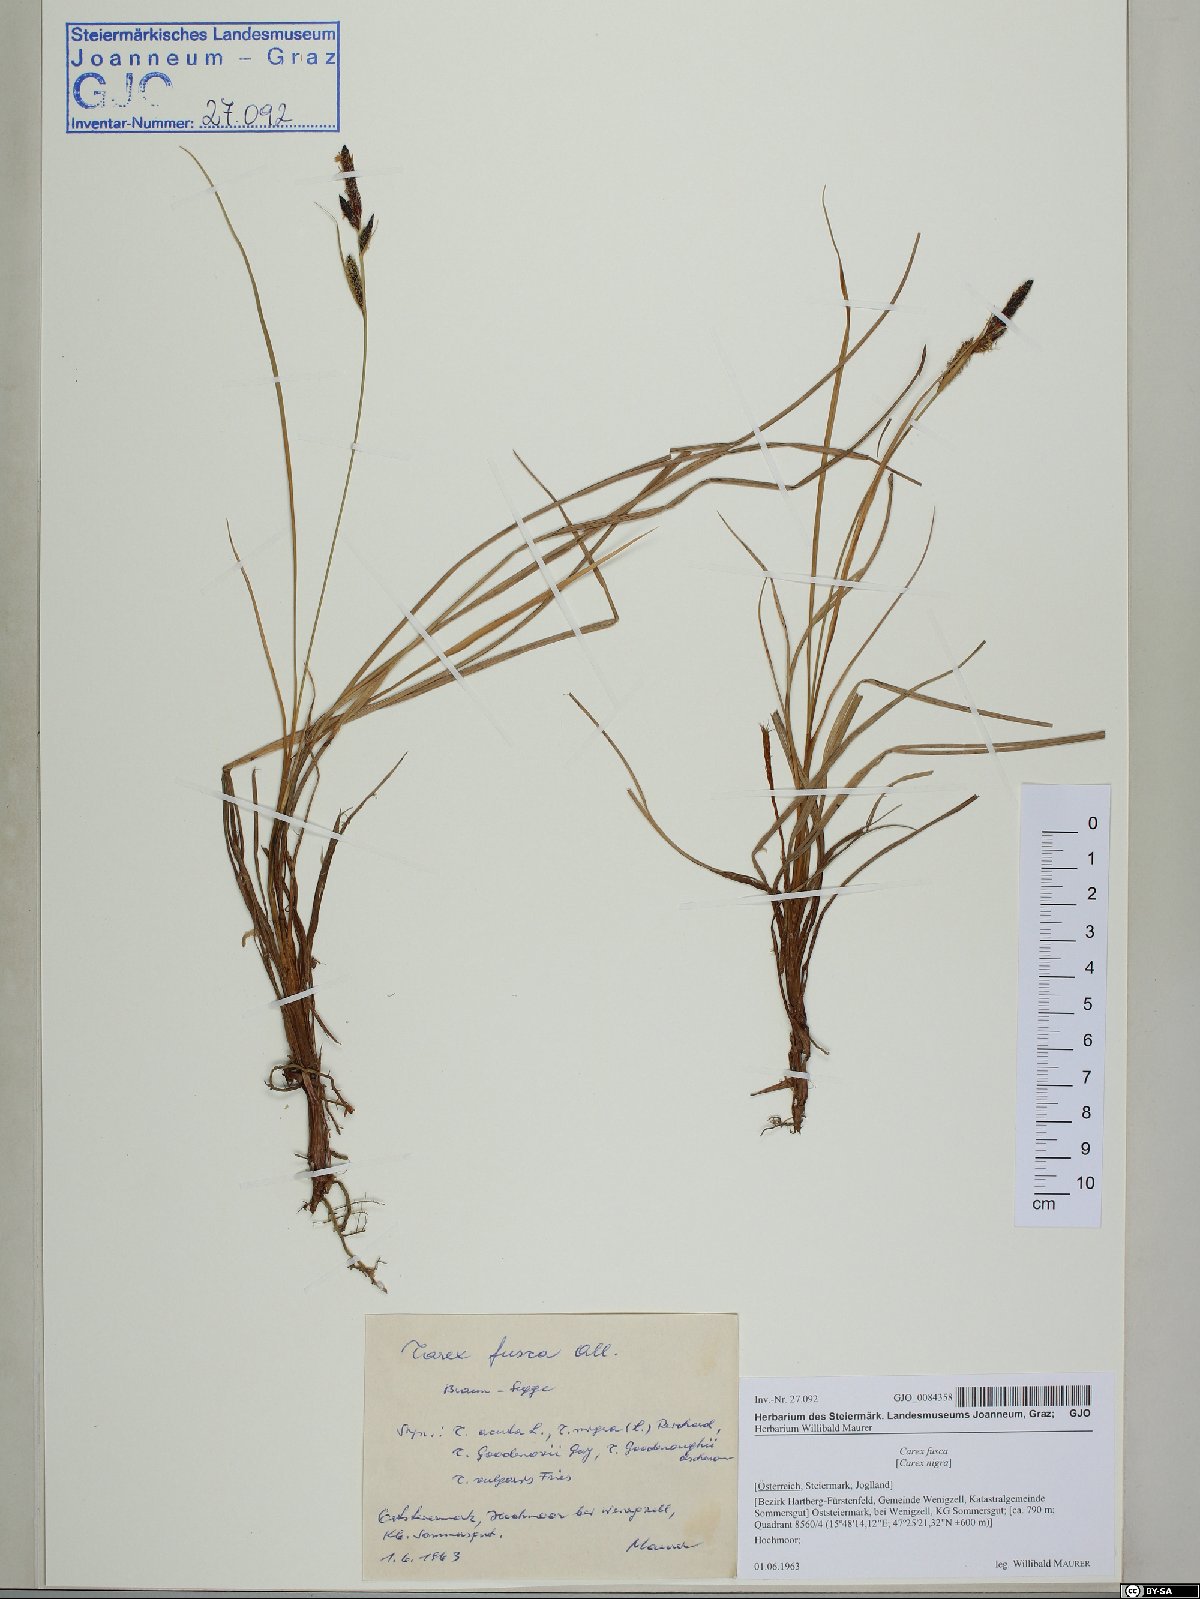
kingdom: Plantae
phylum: Tracheophyta
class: Liliopsida
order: Poales
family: Cyperaceae
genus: Carex
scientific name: Carex nigra
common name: Common sedge
